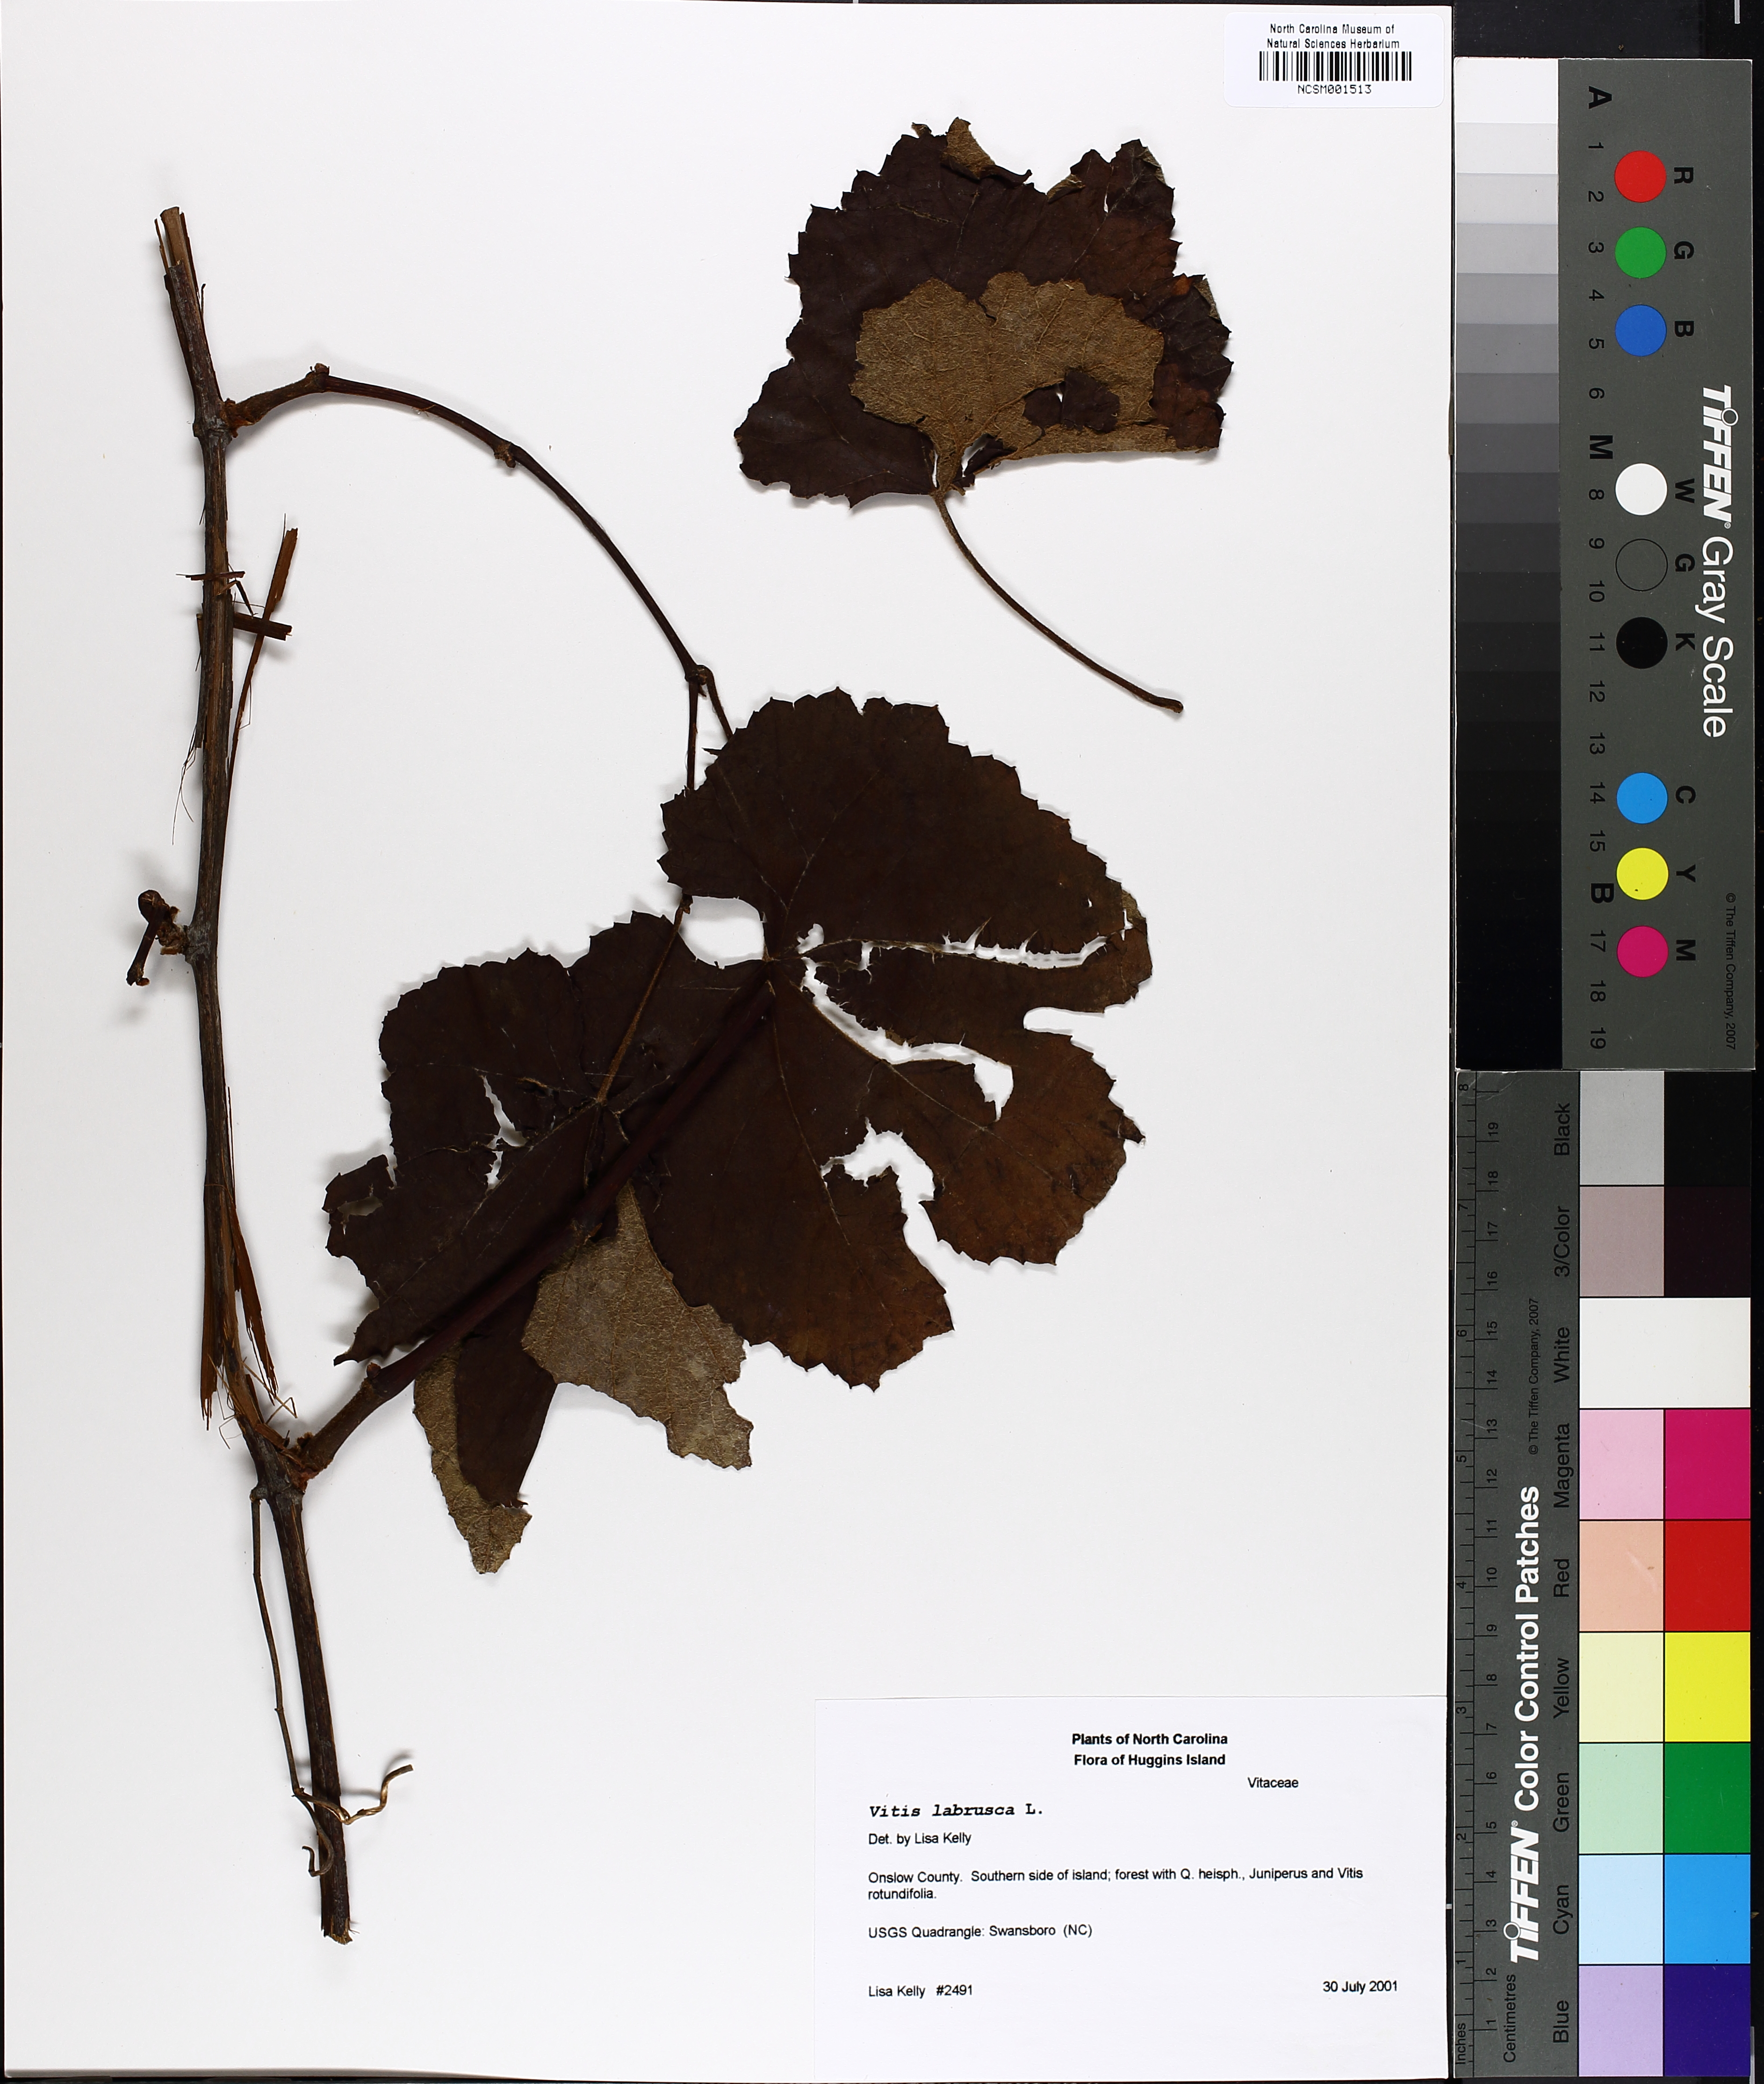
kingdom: Plantae
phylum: Tracheophyta
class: Magnoliopsida
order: Vitales
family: Vitaceae
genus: Vitis
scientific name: Vitis labrusca
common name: Concord grape
